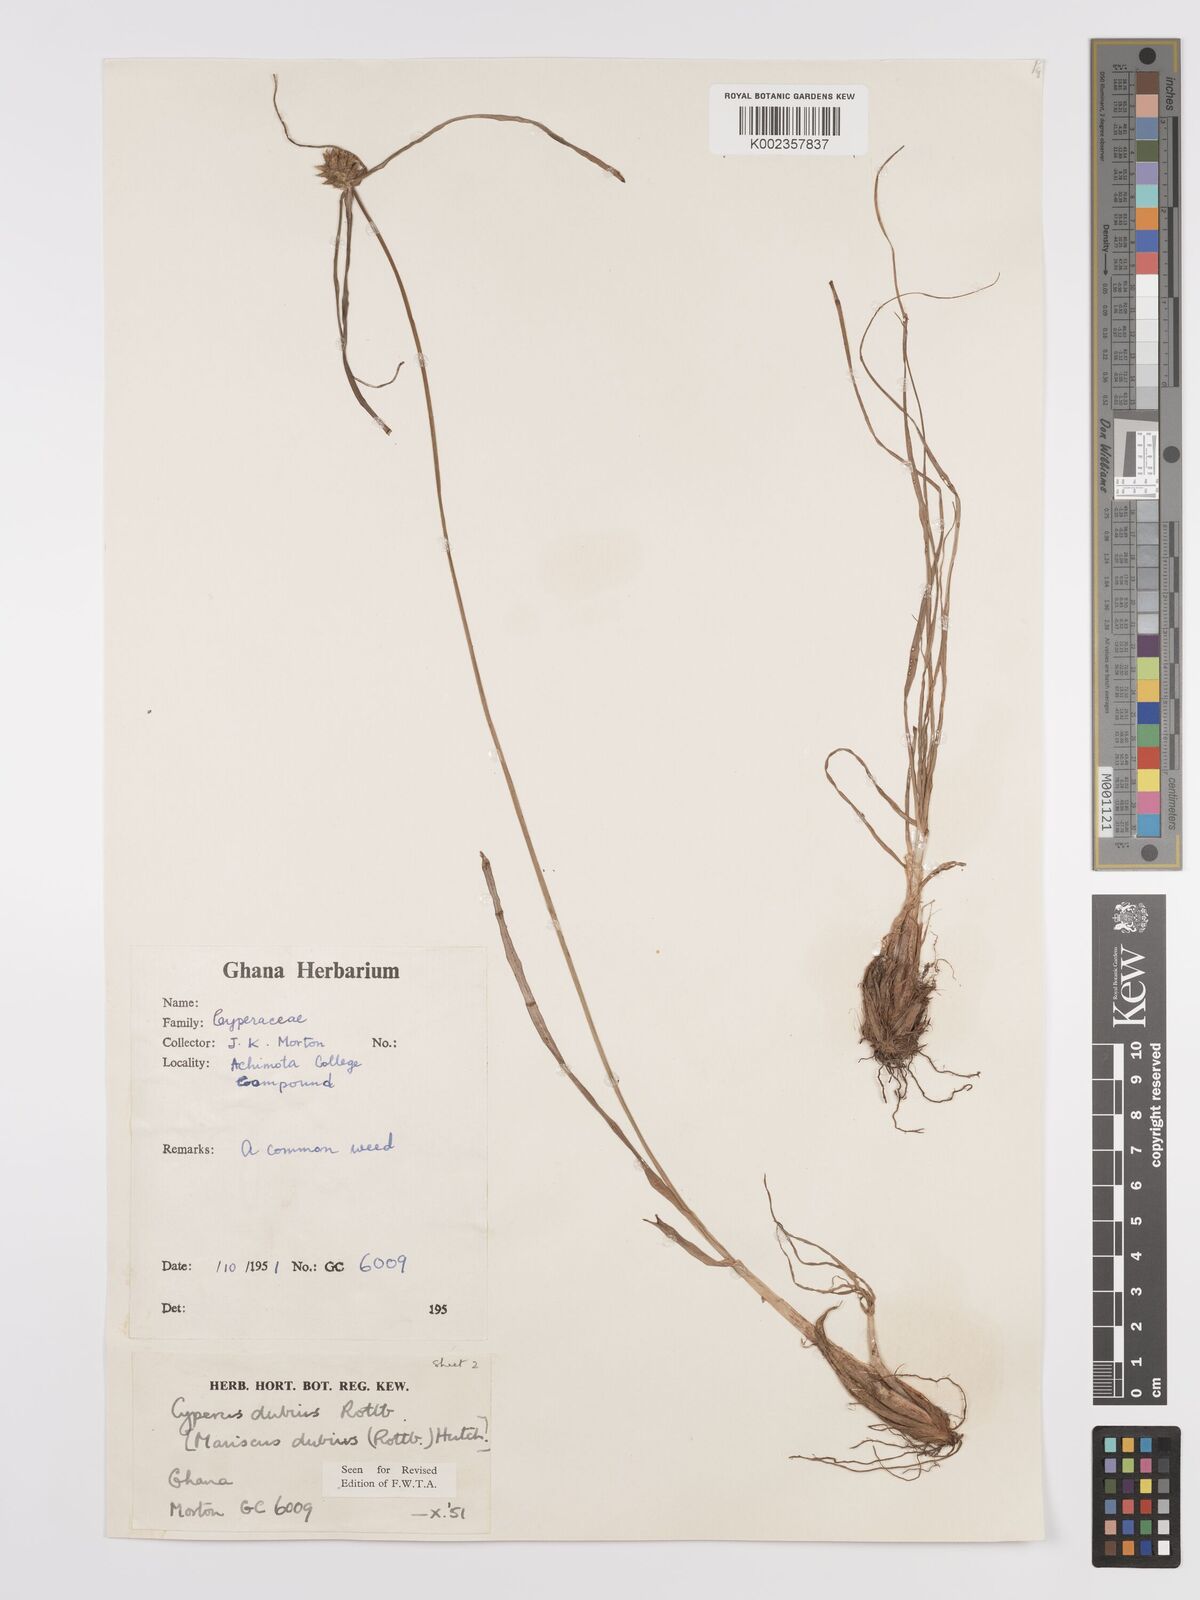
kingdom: Plantae
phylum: Tracheophyta
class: Liliopsida
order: Poales
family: Cyperaceae
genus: Cyperus
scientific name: Cyperus dubius
